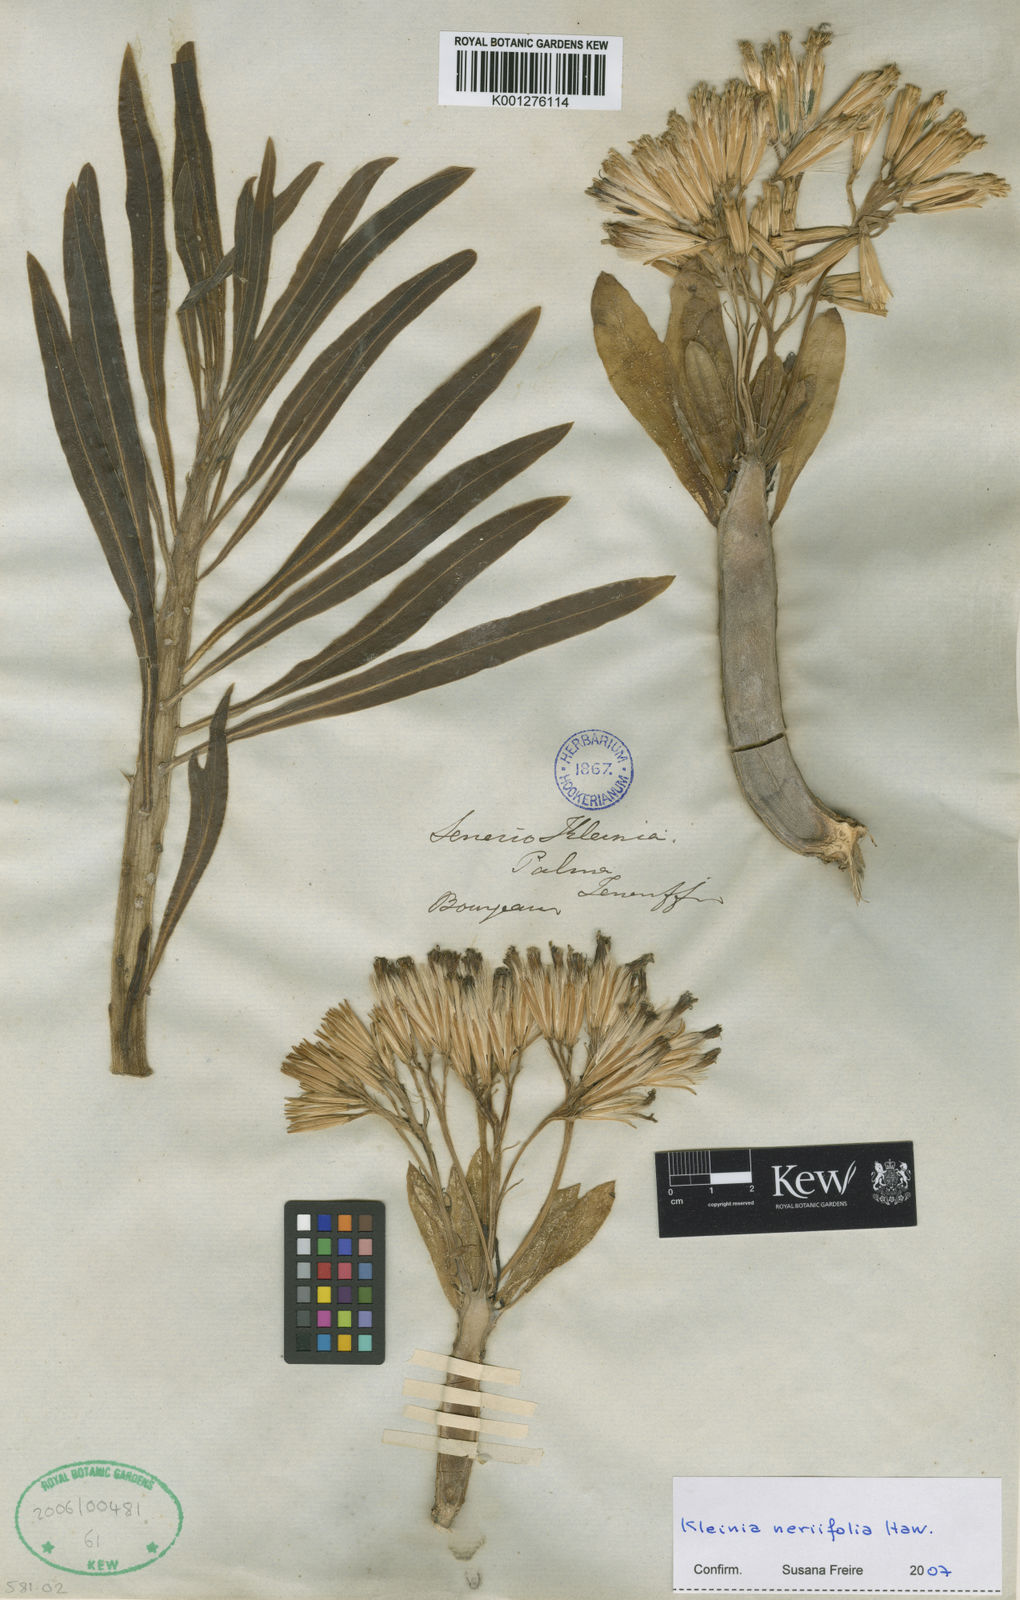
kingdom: Plantae
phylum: Tracheophyta
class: Magnoliopsida
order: Asterales
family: Asteraceae
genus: Kleinia
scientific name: Kleinia neriifolia
